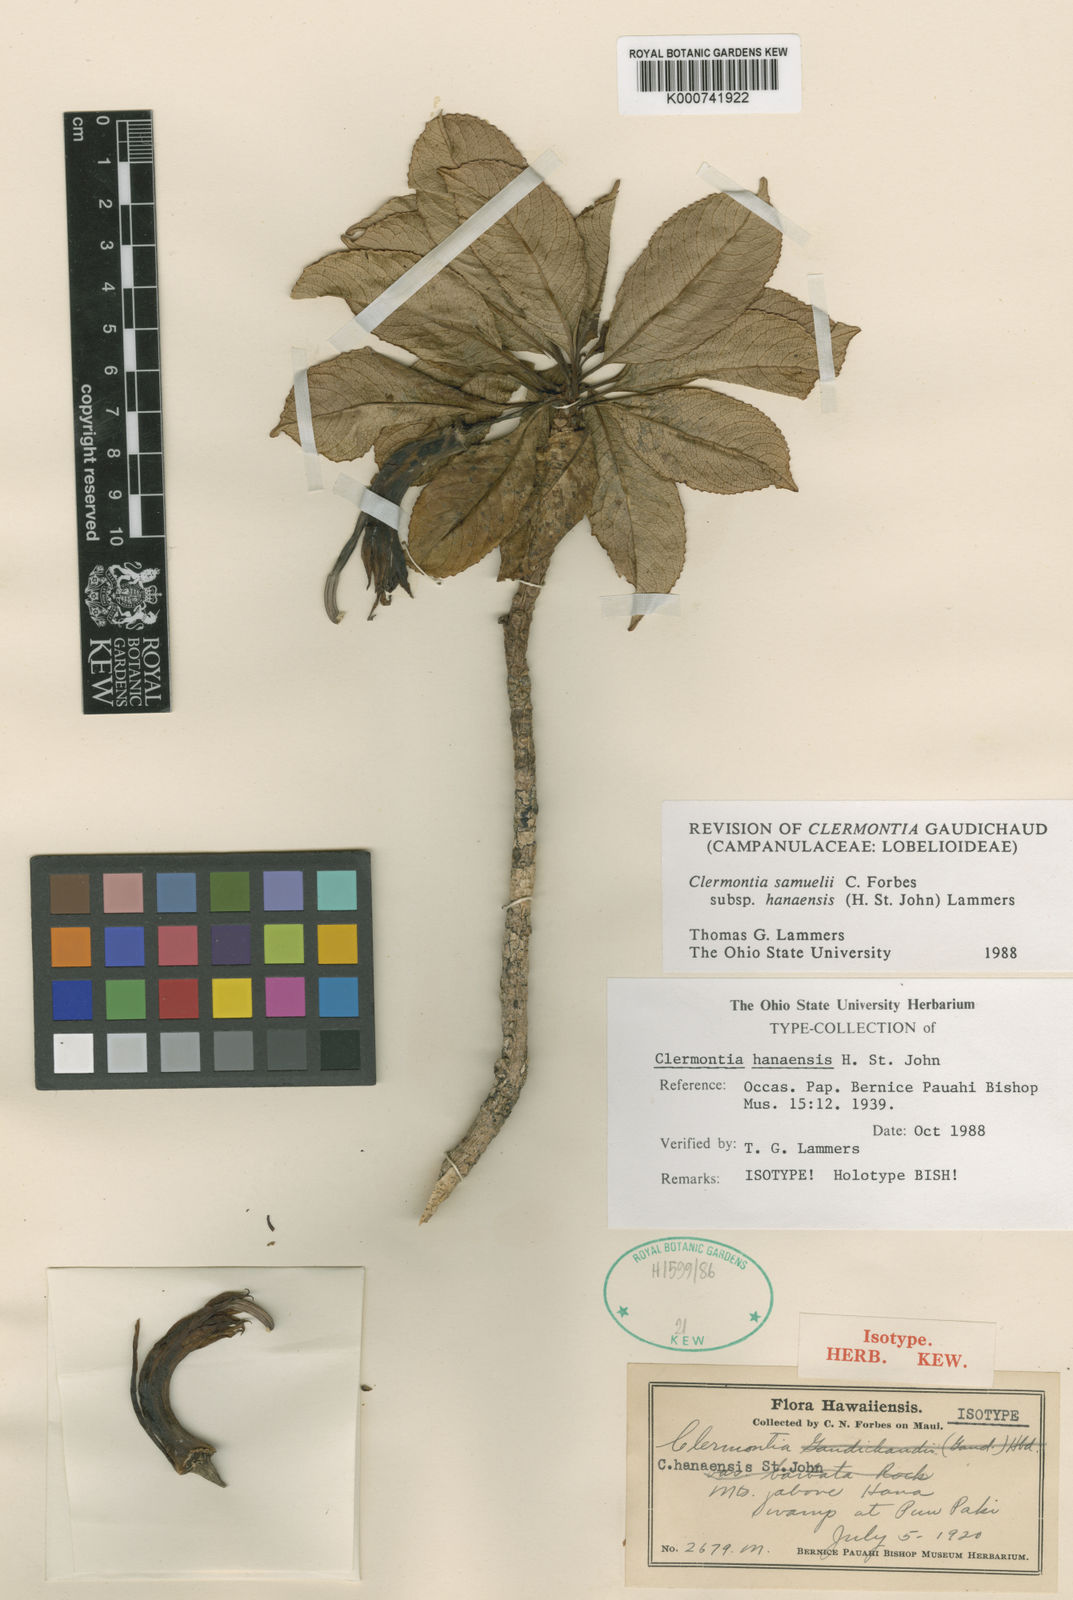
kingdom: Plantae
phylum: Tracheophyta
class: Magnoliopsida
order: Asterales
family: Campanulaceae
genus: Clermontia
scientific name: Clermontia samuelii
